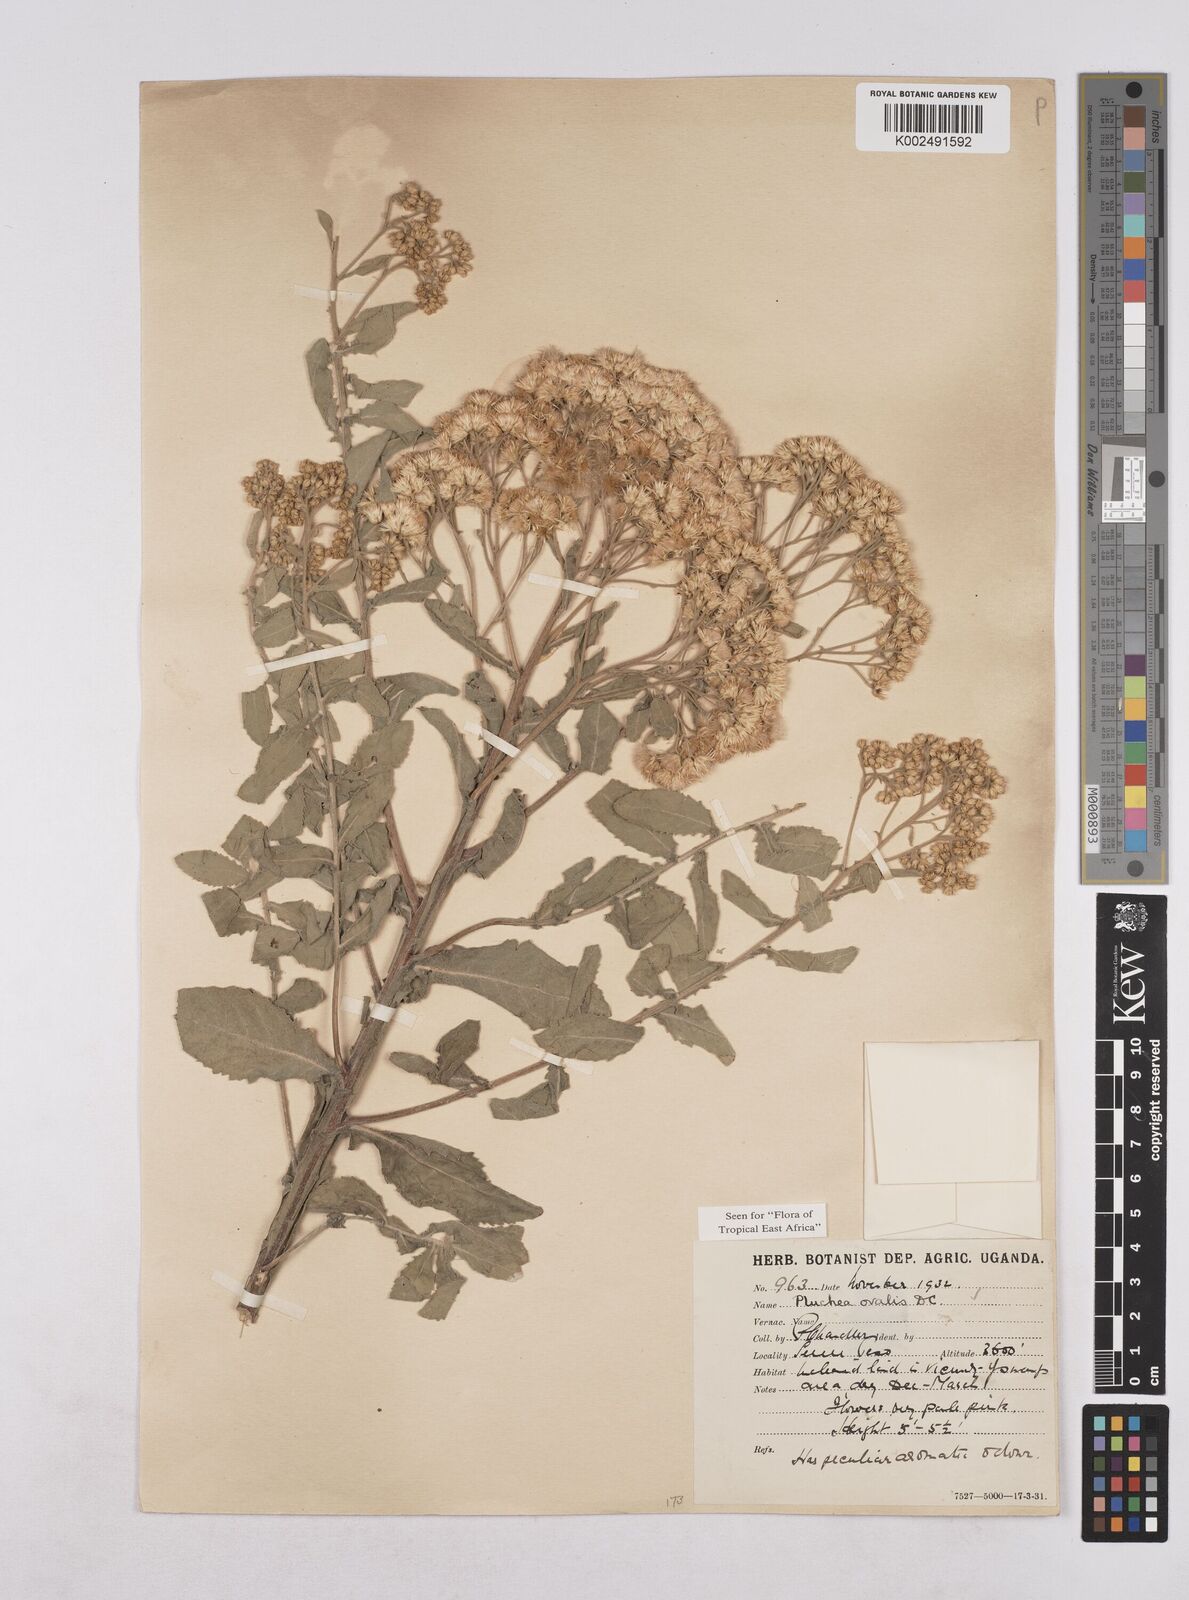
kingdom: Plantae
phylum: Tracheophyta
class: Magnoliopsida
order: Asterales
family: Asteraceae
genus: Pluchea
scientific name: Pluchea ovalis
